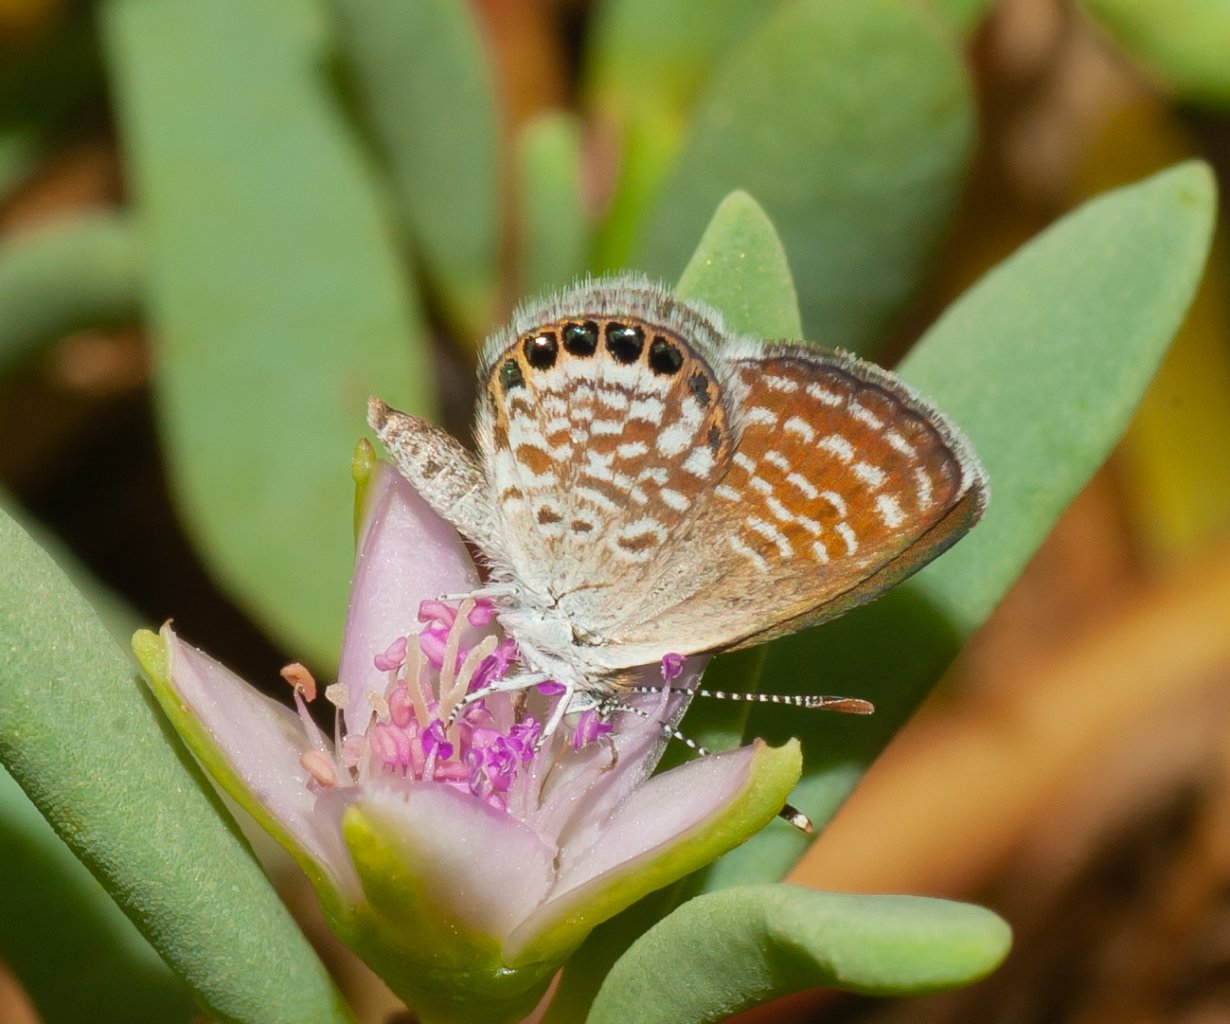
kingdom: Animalia
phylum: Arthropoda
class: Insecta
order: Lepidoptera
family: Lycaenidae
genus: Brephidium
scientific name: Brephidium exilis
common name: Western Pygmy-Blue
